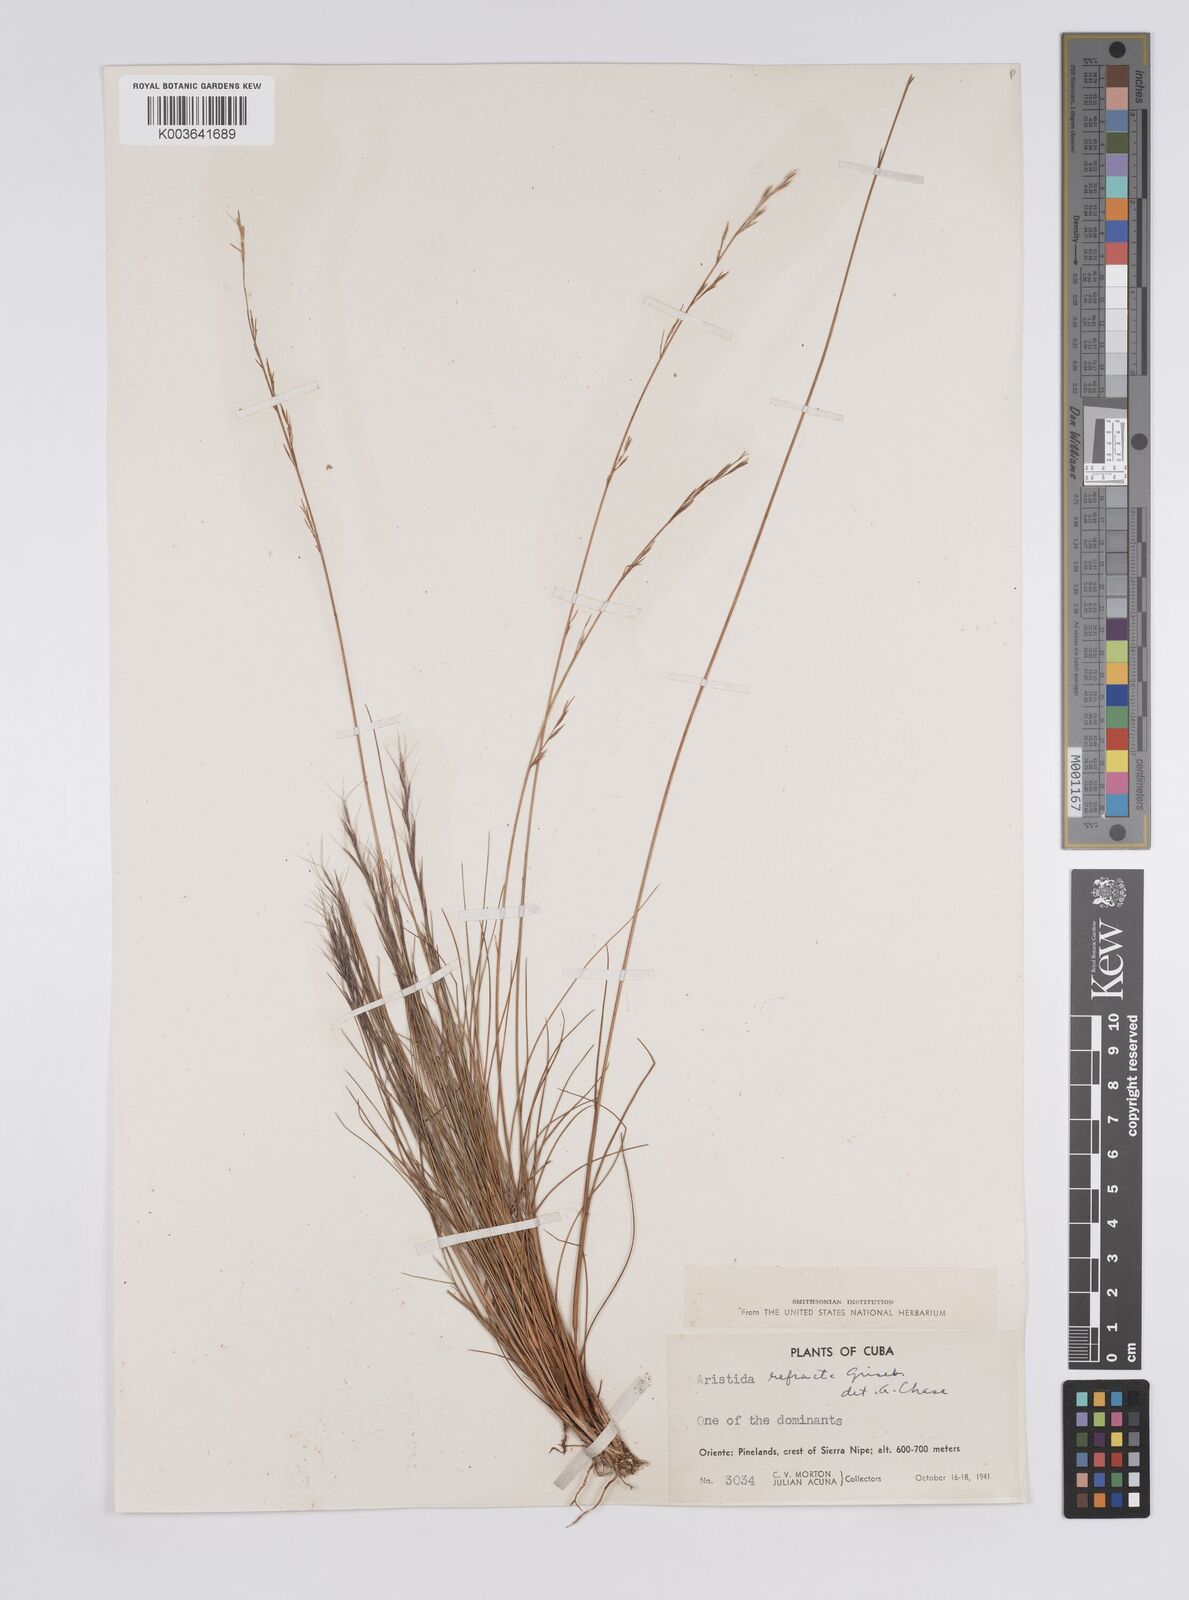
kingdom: Plantae
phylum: Tracheophyta
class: Liliopsida
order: Poales
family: Poaceae
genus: Aristida
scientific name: Aristida refracta
